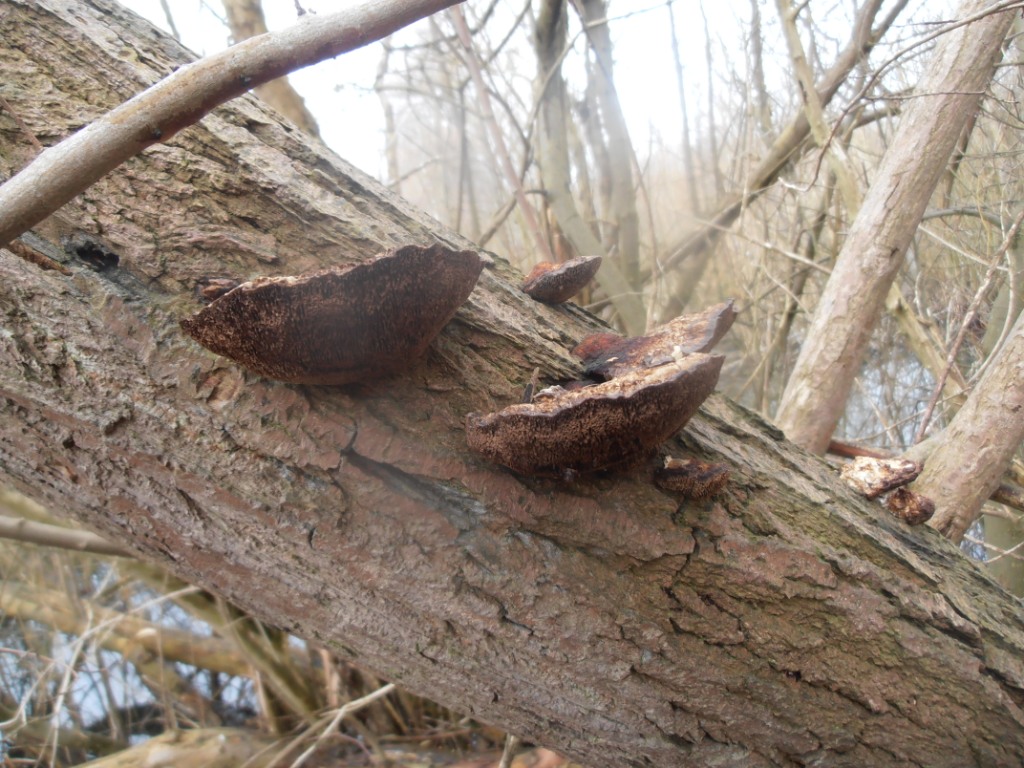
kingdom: Fungi
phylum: Basidiomycota
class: Agaricomycetes
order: Polyporales
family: Polyporaceae
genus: Daedaleopsis
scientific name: Daedaleopsis confragosa
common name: rødmende læderporesvamp
